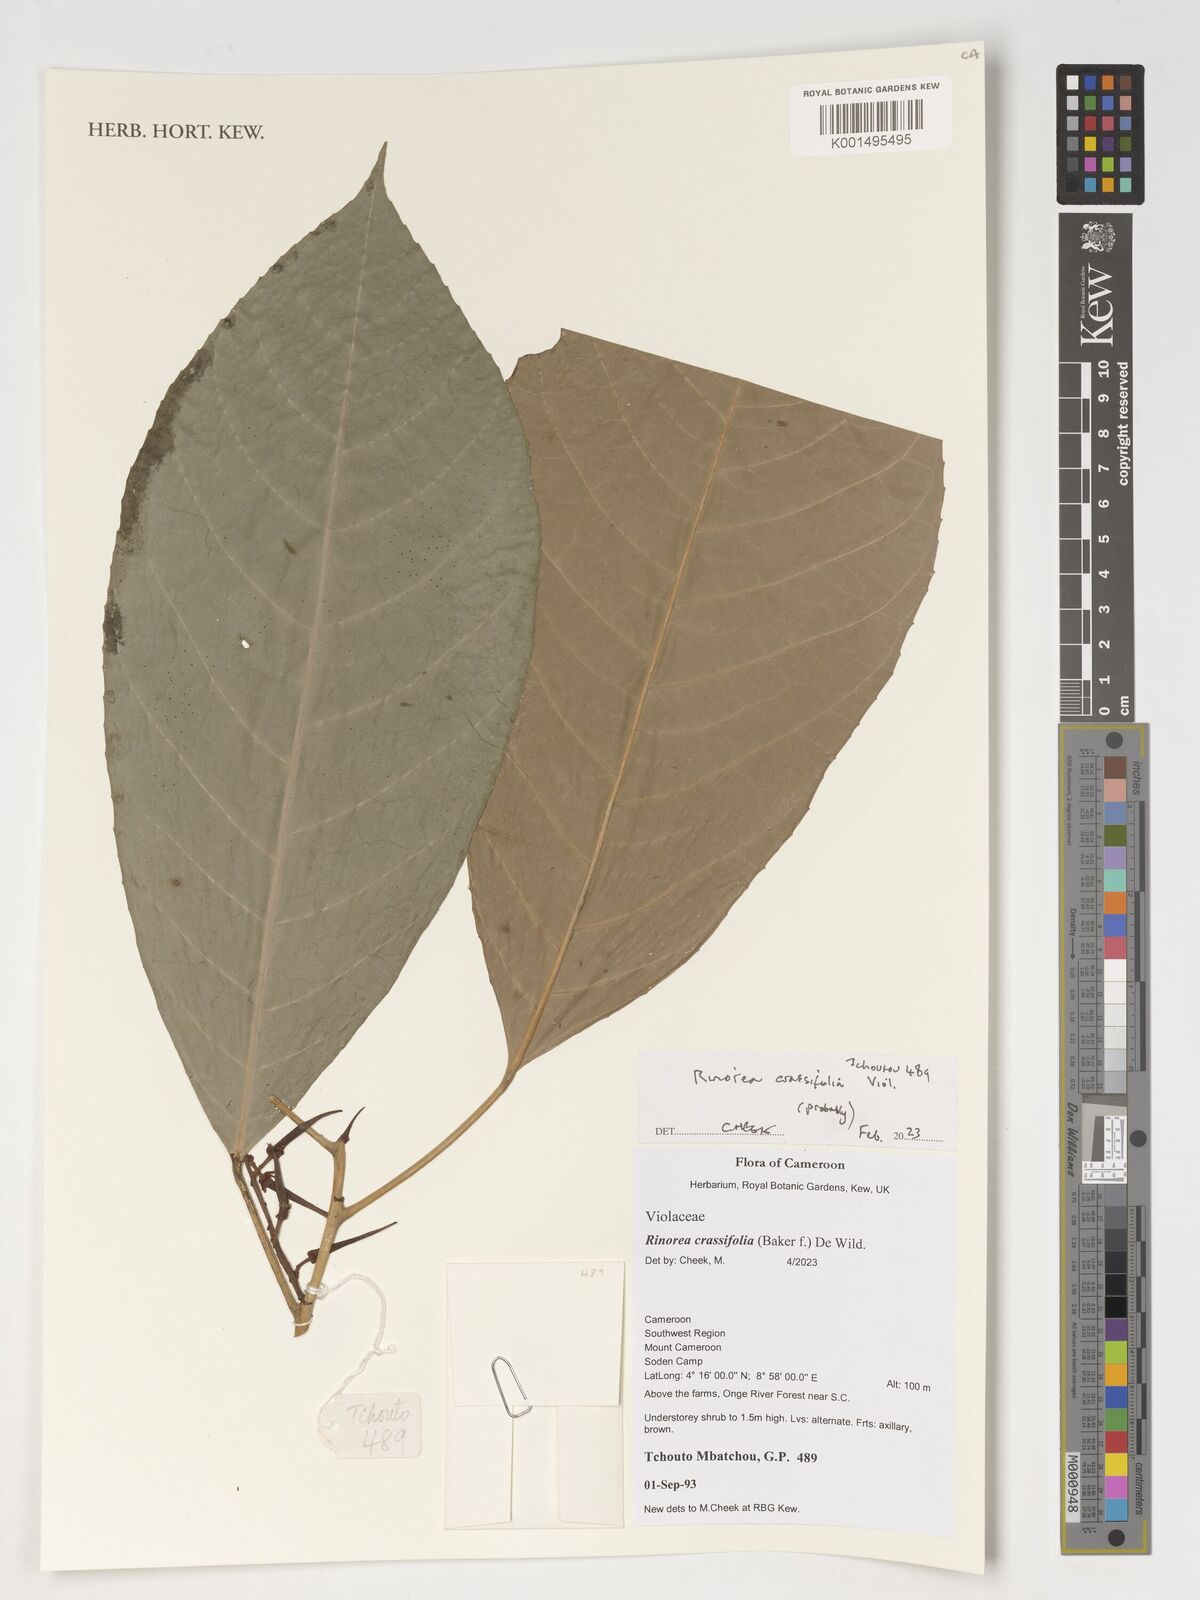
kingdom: Plantae
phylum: Tracheophyta
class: Magnoliopsida
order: Malpighiales
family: Violaceae
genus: Rinorea
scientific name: Rinorea crassifolia
